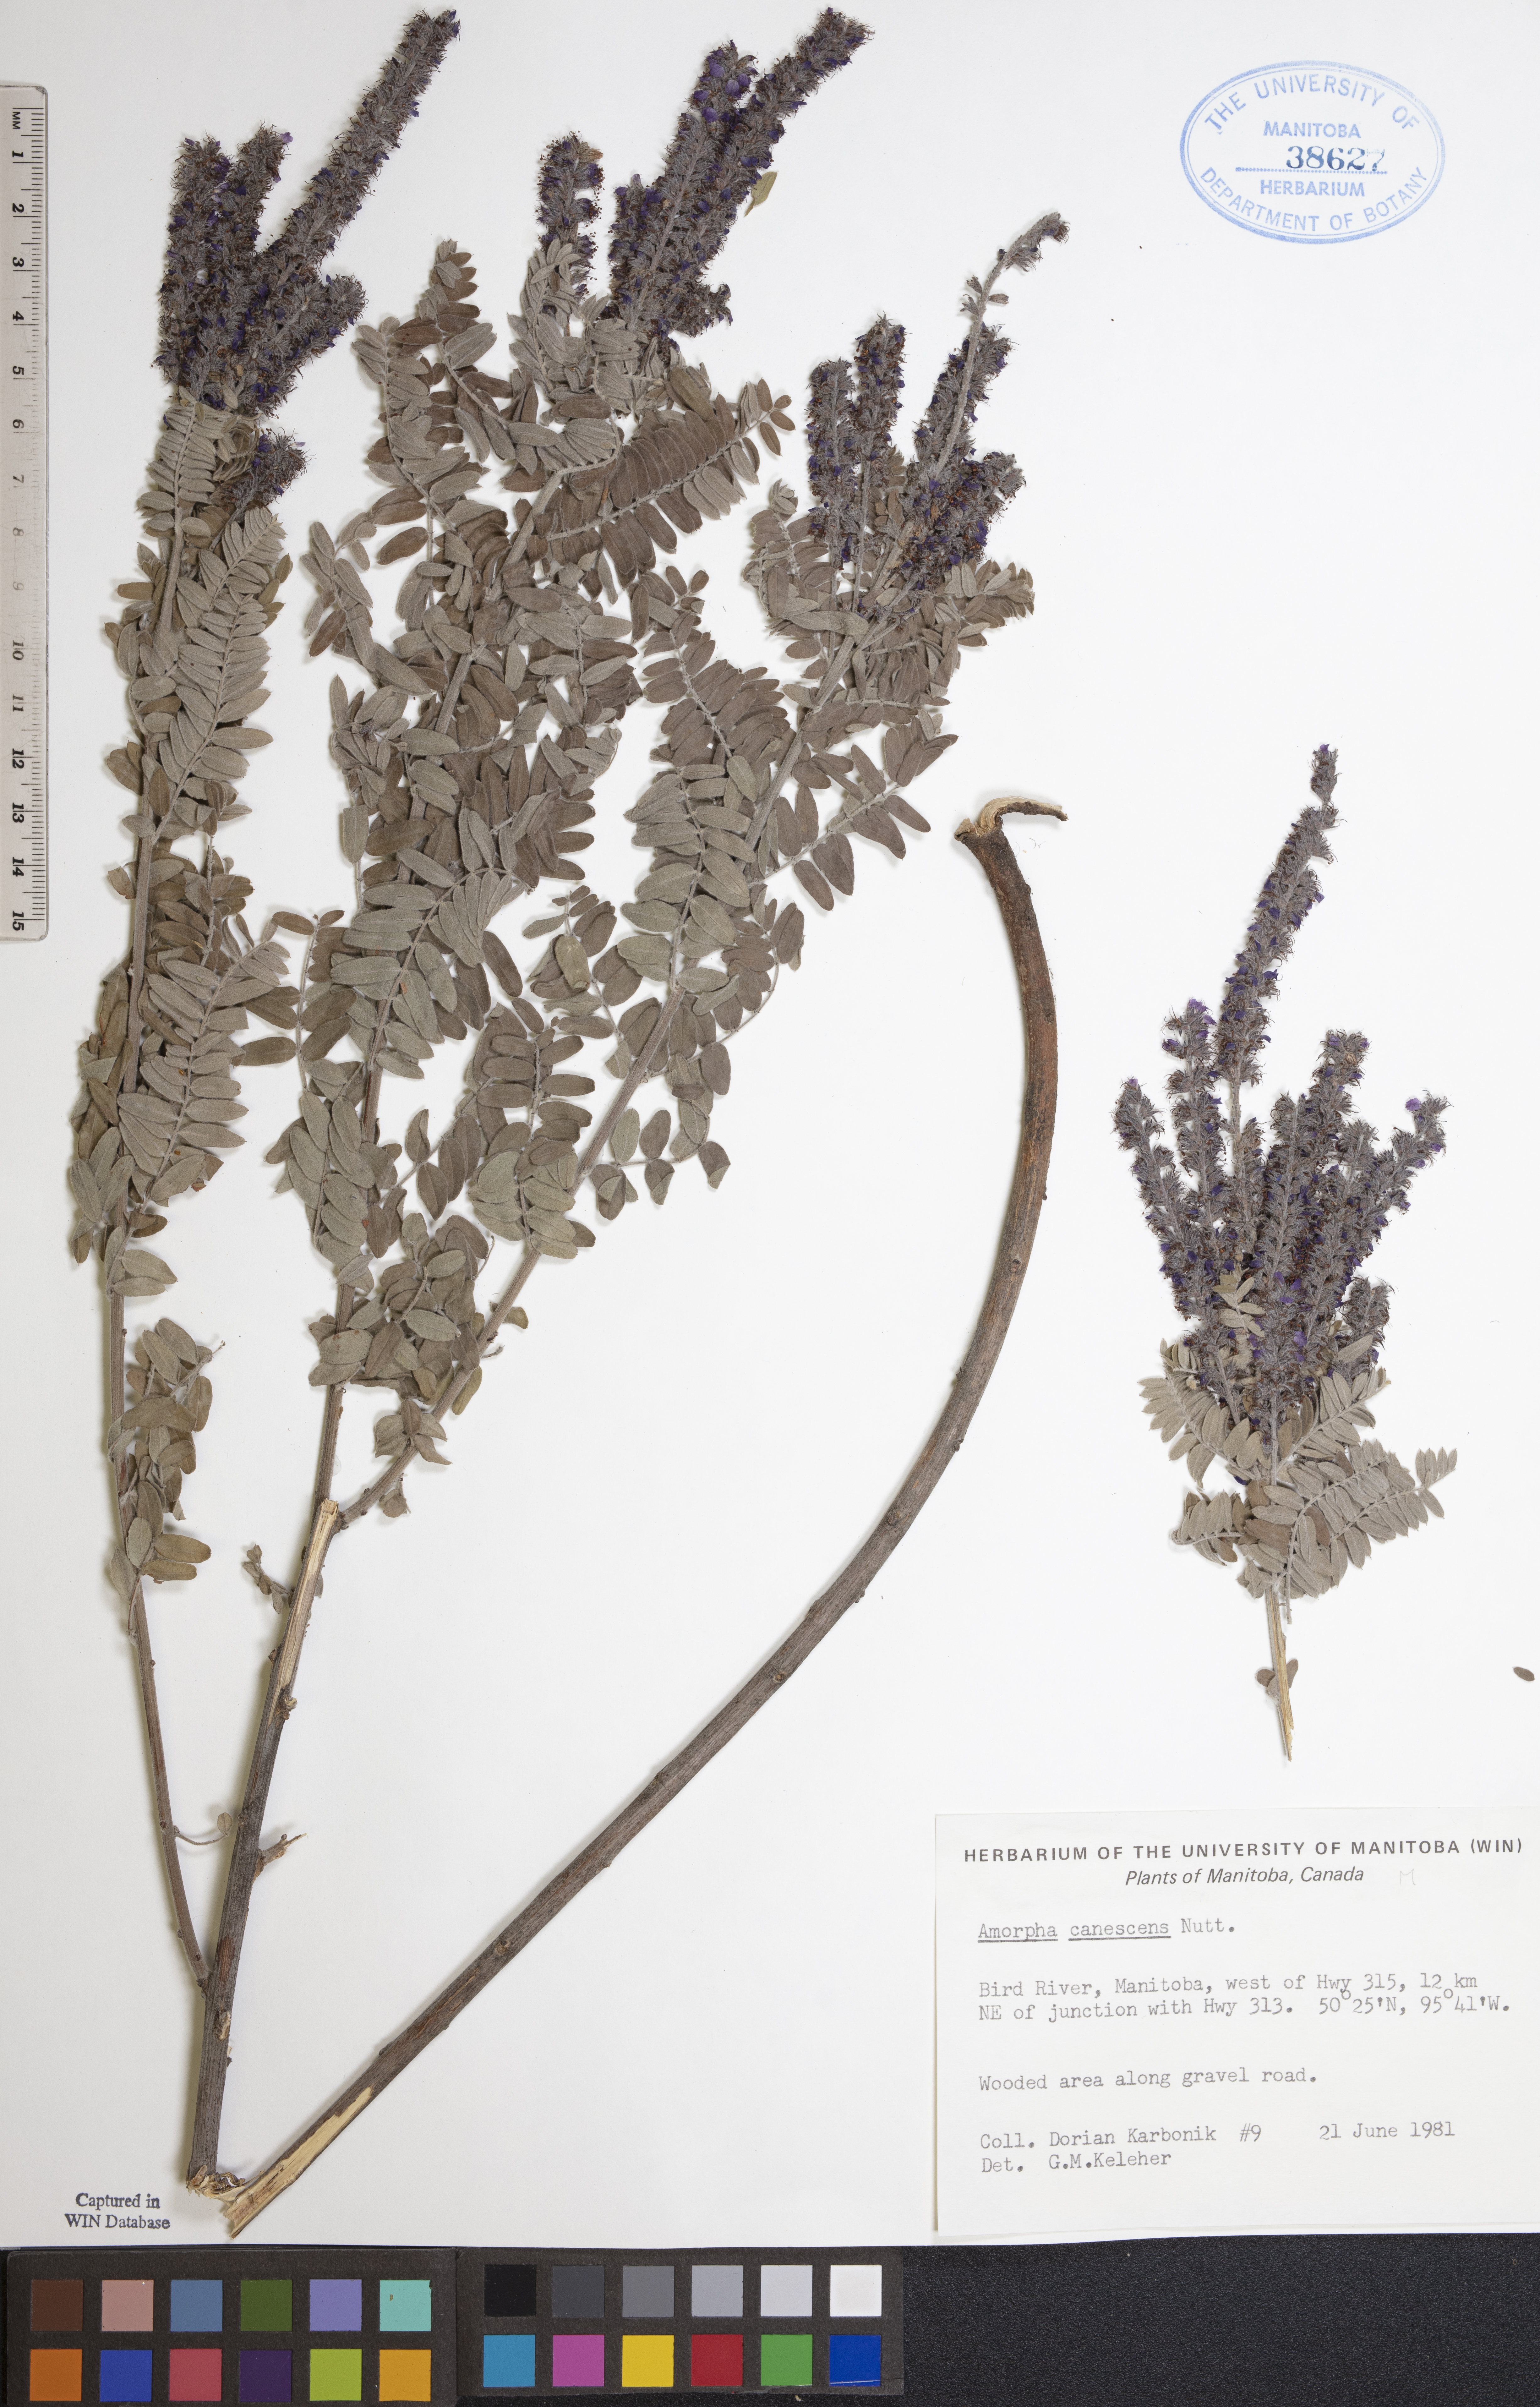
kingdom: Plantae
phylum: Tracheophyta
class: Magnoliopsida
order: Fabales
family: Fabaceae
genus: Amorpha
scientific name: Amorpha canescens
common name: Leadplant
